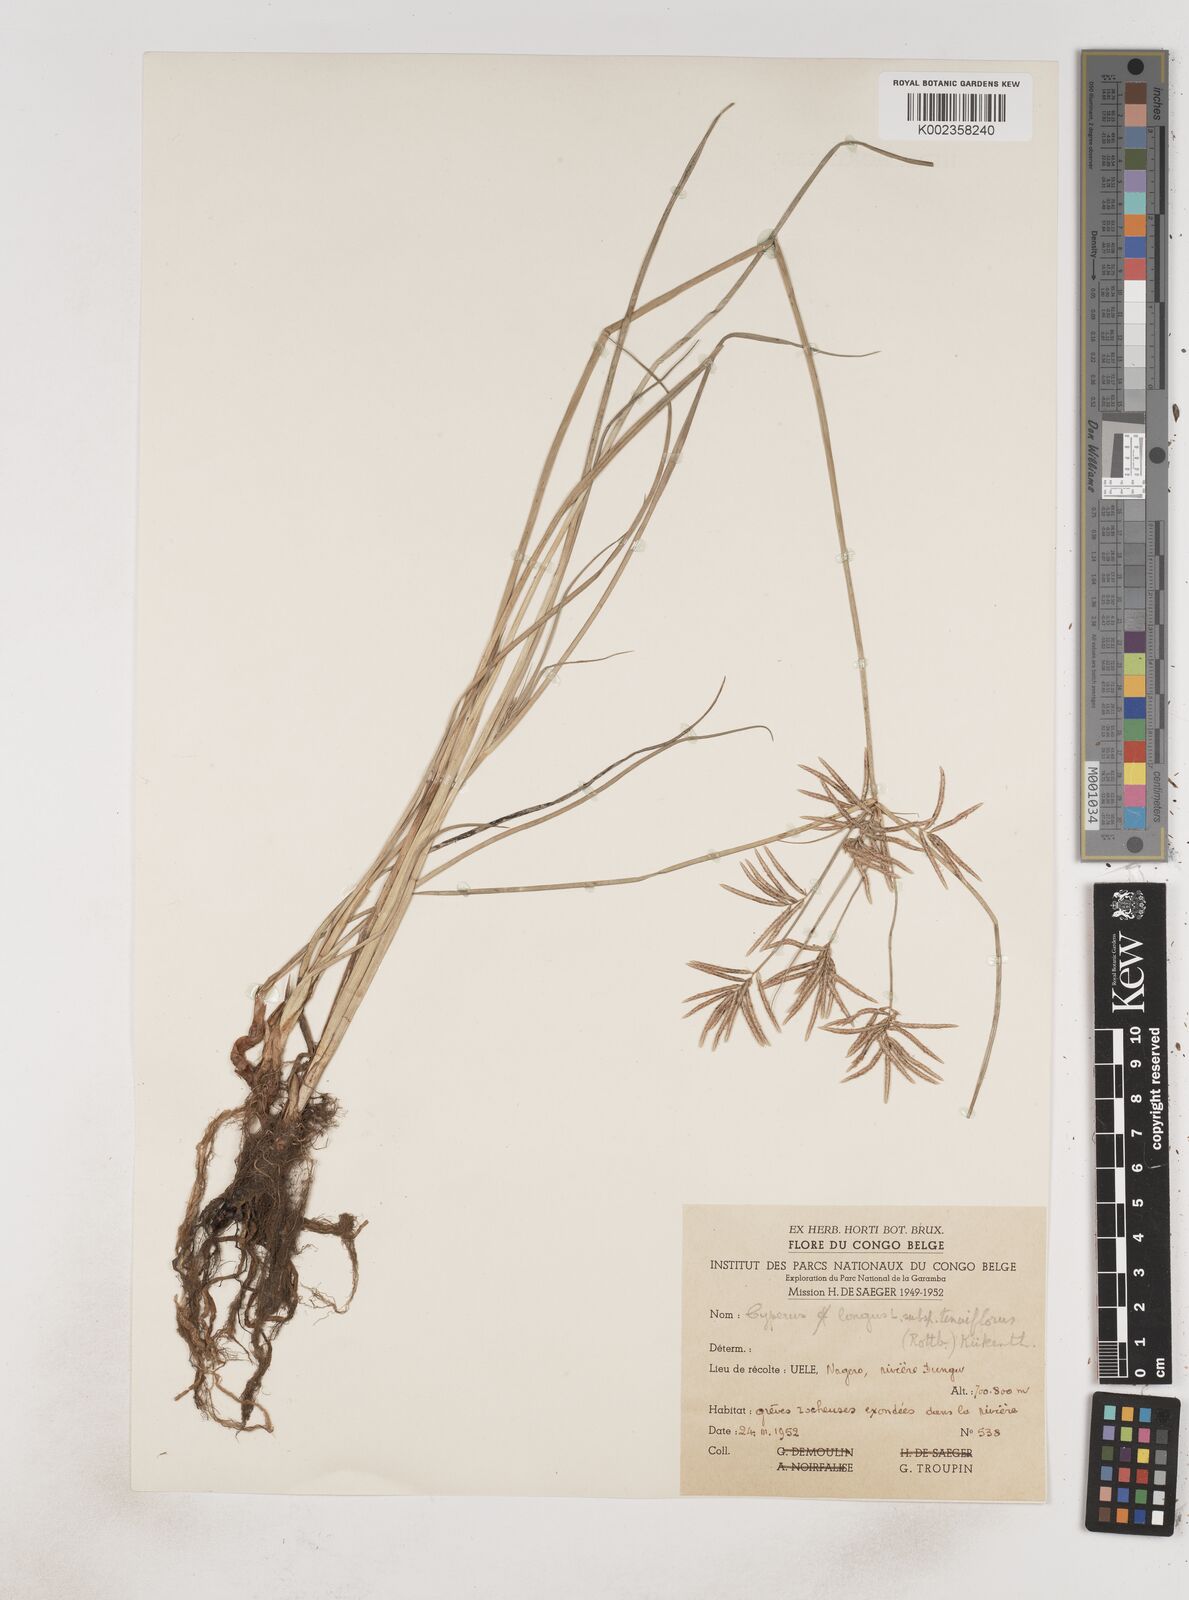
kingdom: Plantae
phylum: Tracheophyta
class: Liliopsida
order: Poales
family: Cyperaceae
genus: Cyperus
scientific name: Cyperus maculatus
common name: Maculated sedge
